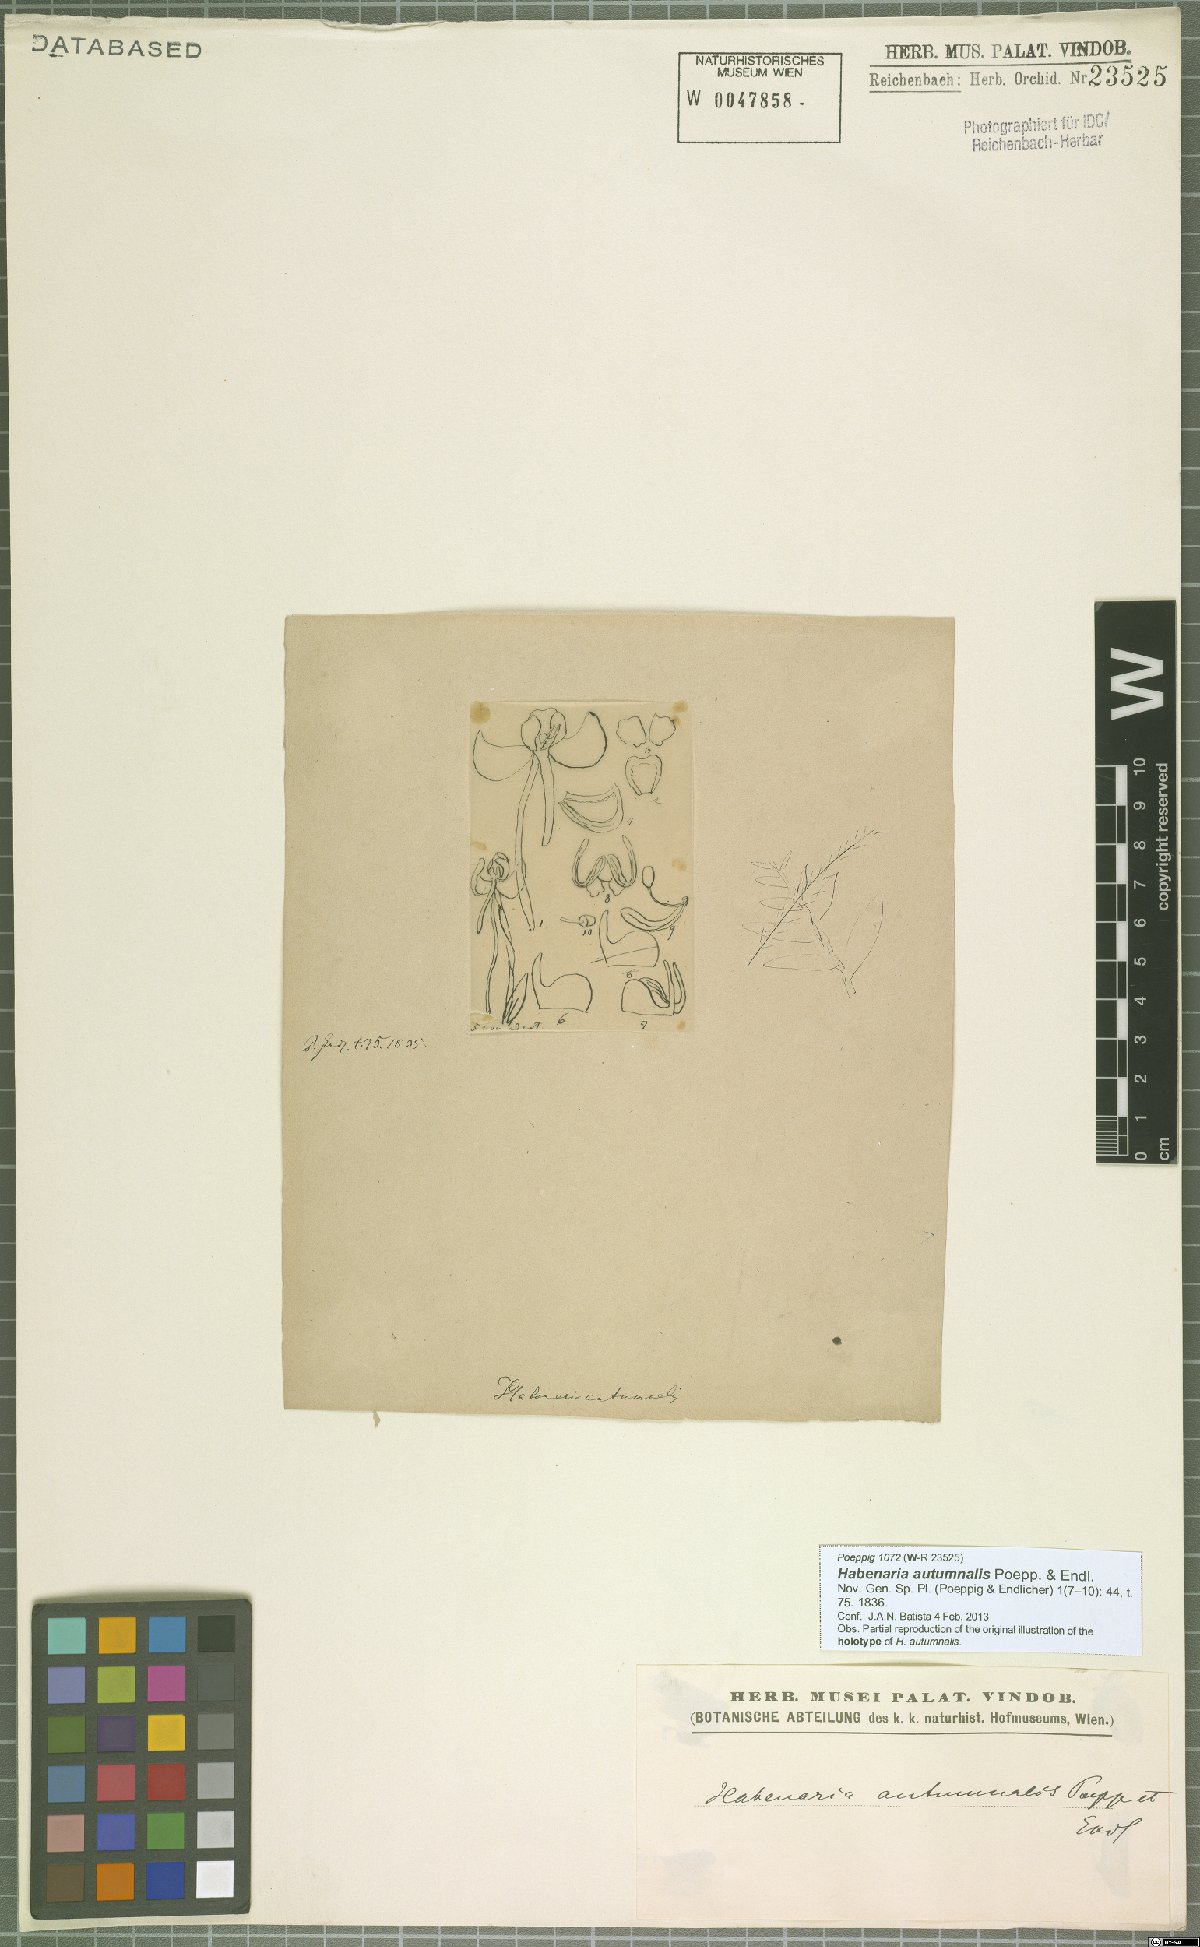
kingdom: Plantae
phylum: Tracheophyta
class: Liliopsida
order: Asparagales
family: Orchidaceae
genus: Habenaria
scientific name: Habenaria floribunda
